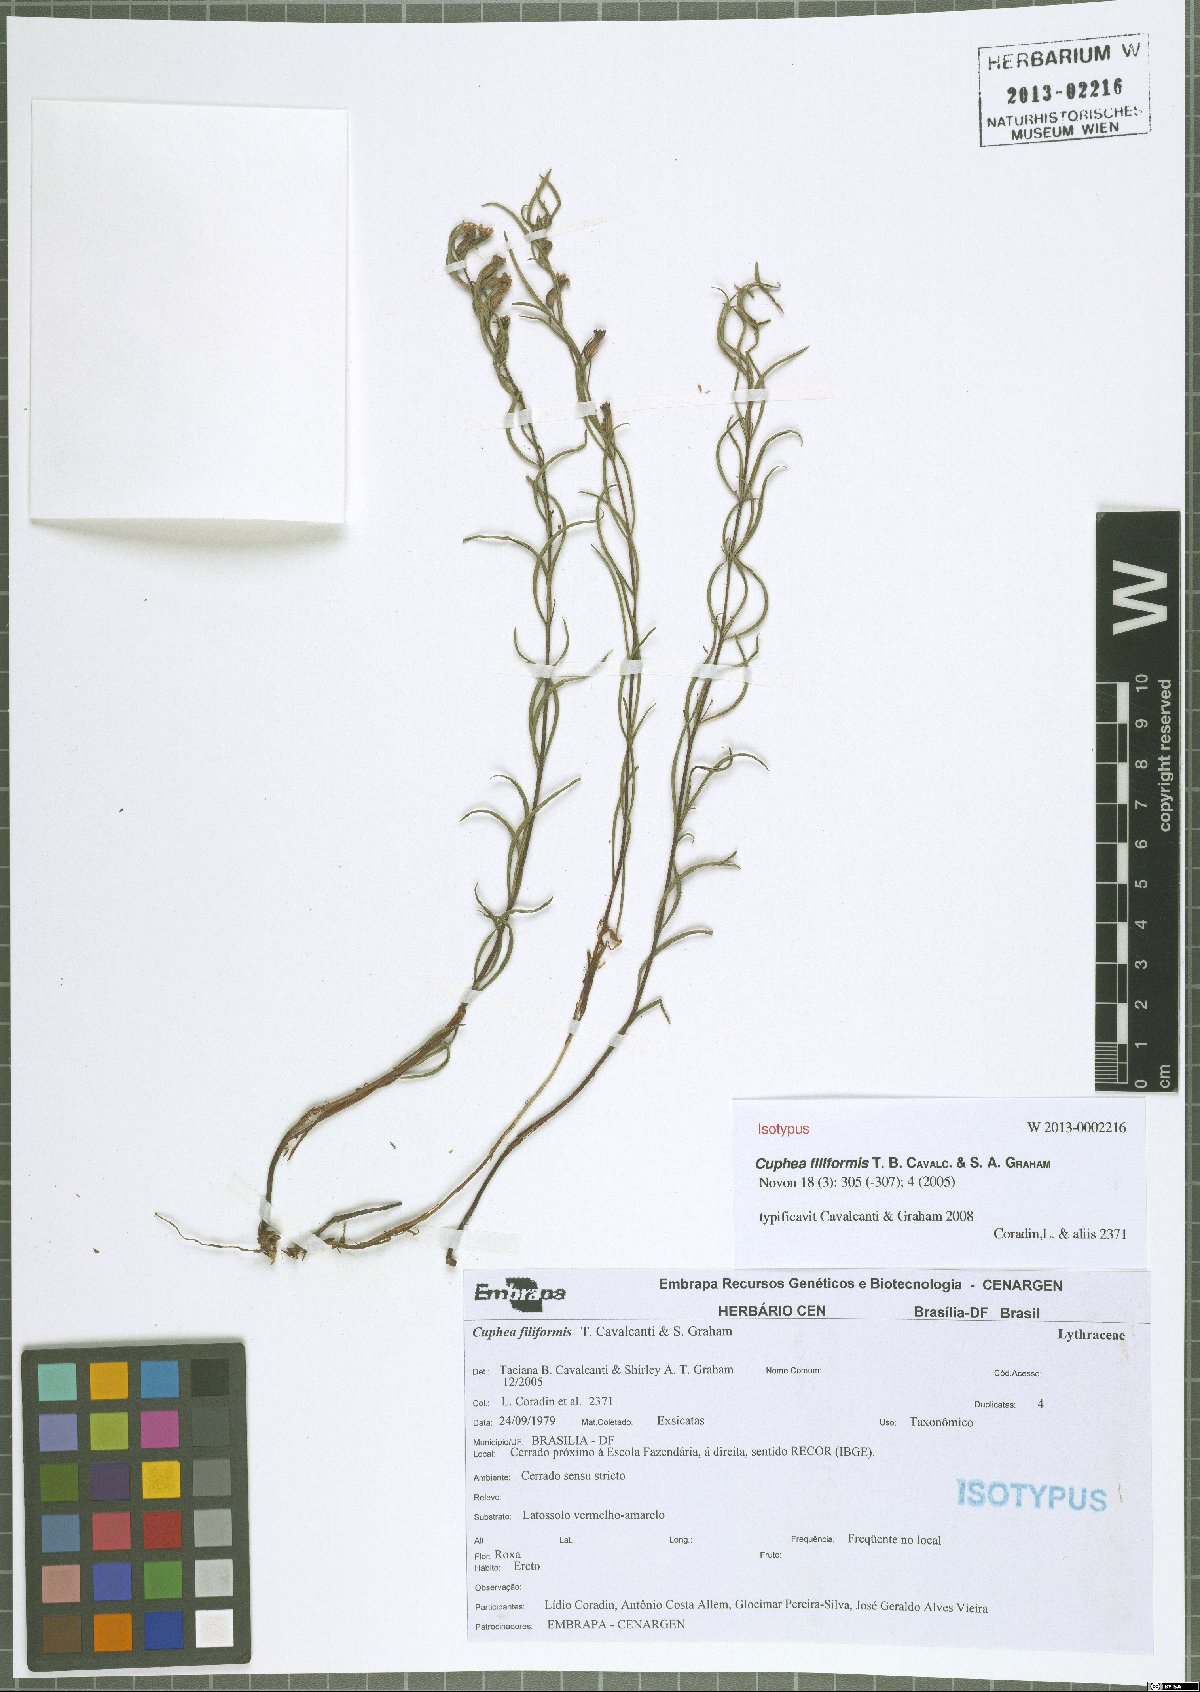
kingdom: Plantae
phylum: Tracheophyta
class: Magnoliopsida
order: Myrtales
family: Lythraceae
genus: Cuphea
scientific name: Cuphea filiformis
